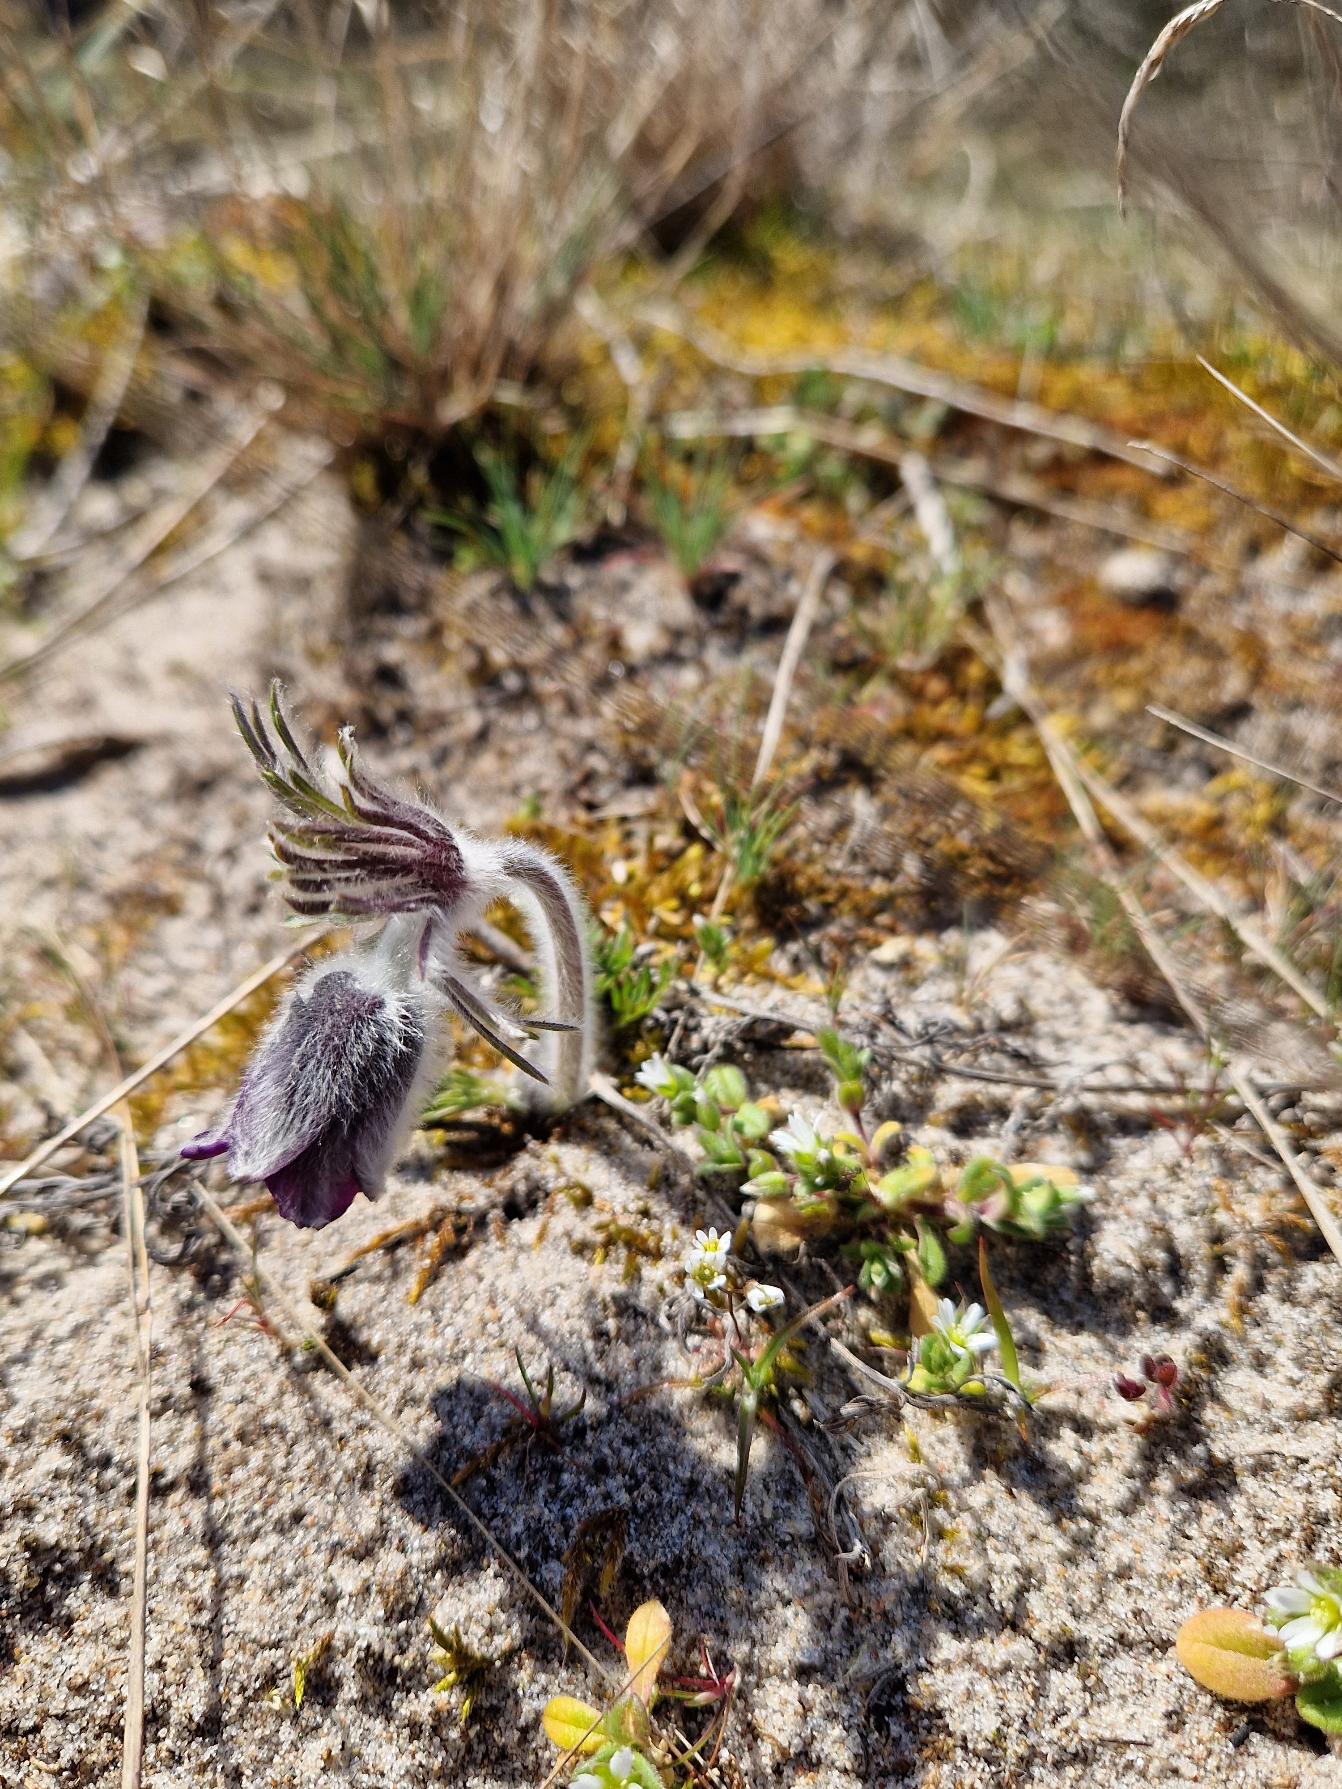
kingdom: Plantae
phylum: Tracheophyta
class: Magnoliopsida
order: Ranunculales
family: Ranunculaceae
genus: Pulsatilla
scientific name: Pulsatilla pratensis
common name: Nikkende kobjælde
